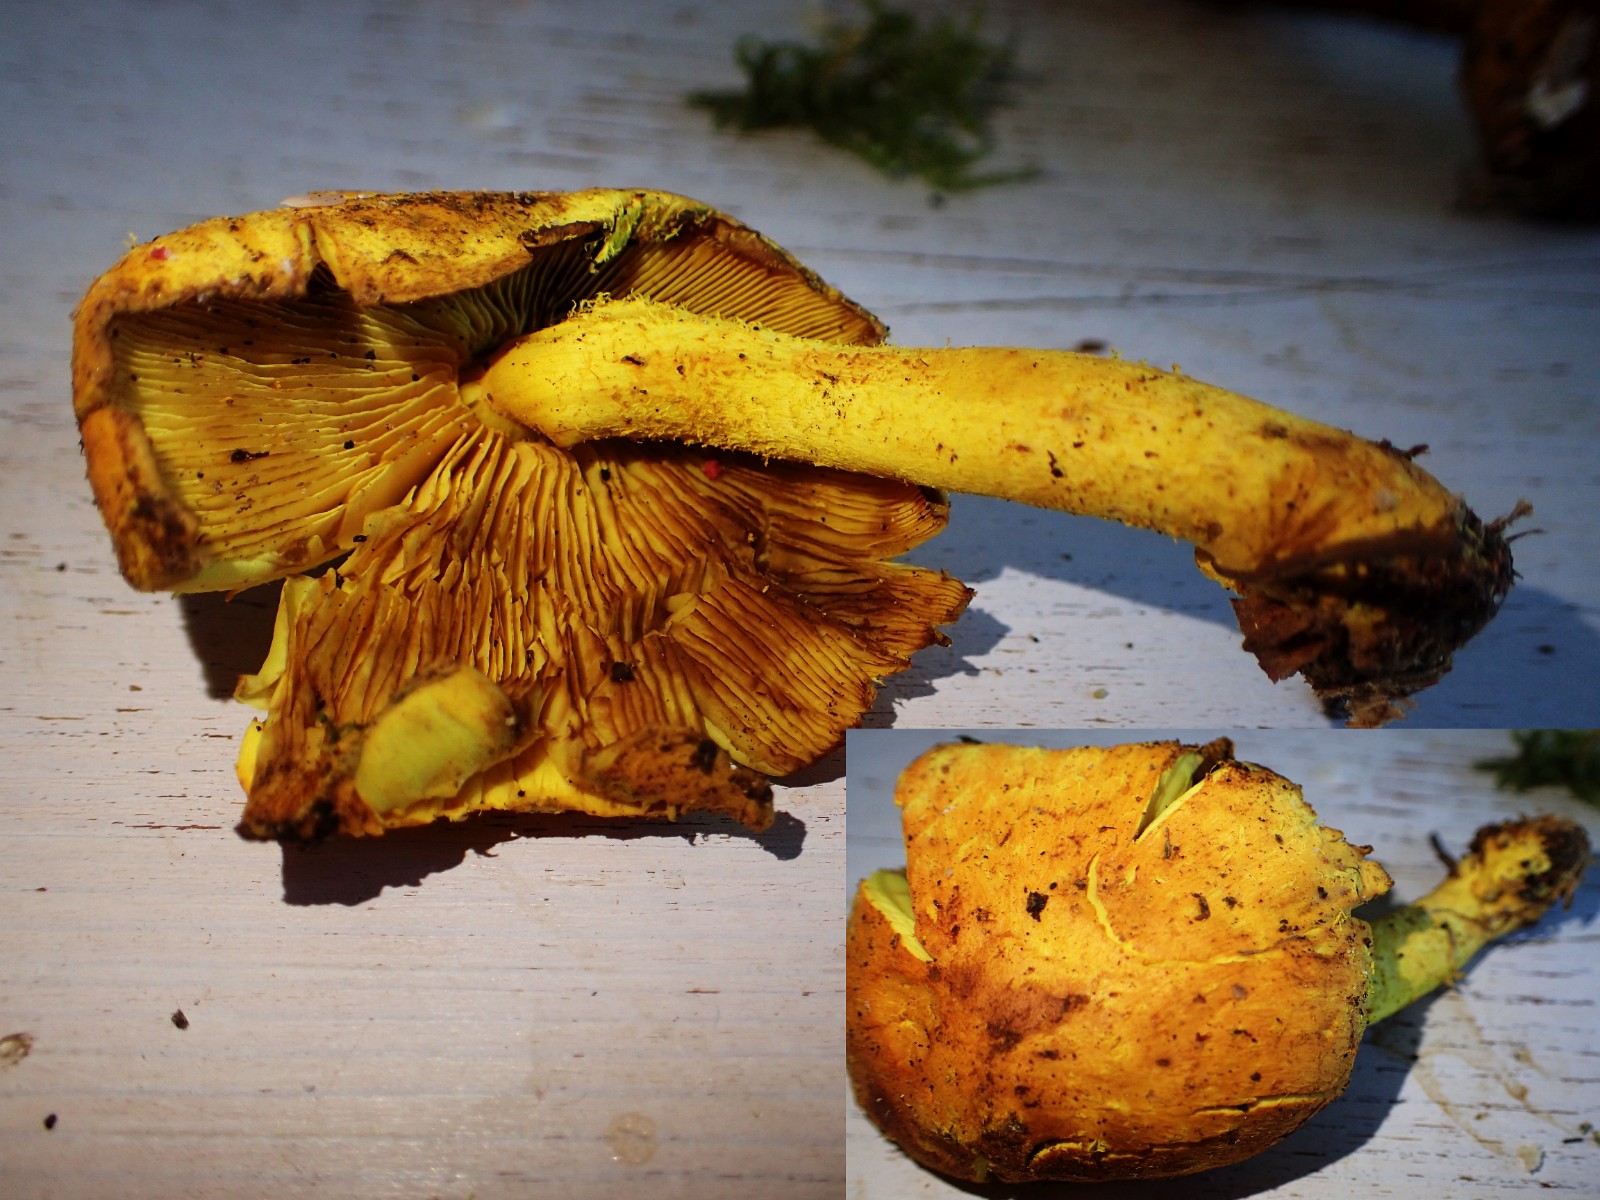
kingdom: Fungi
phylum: Basidiomycota
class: Agaricomycetes
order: Agaricales
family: Strophariaceae
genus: Pholiota
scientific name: Pholiota flammans
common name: flamme-skælhat
